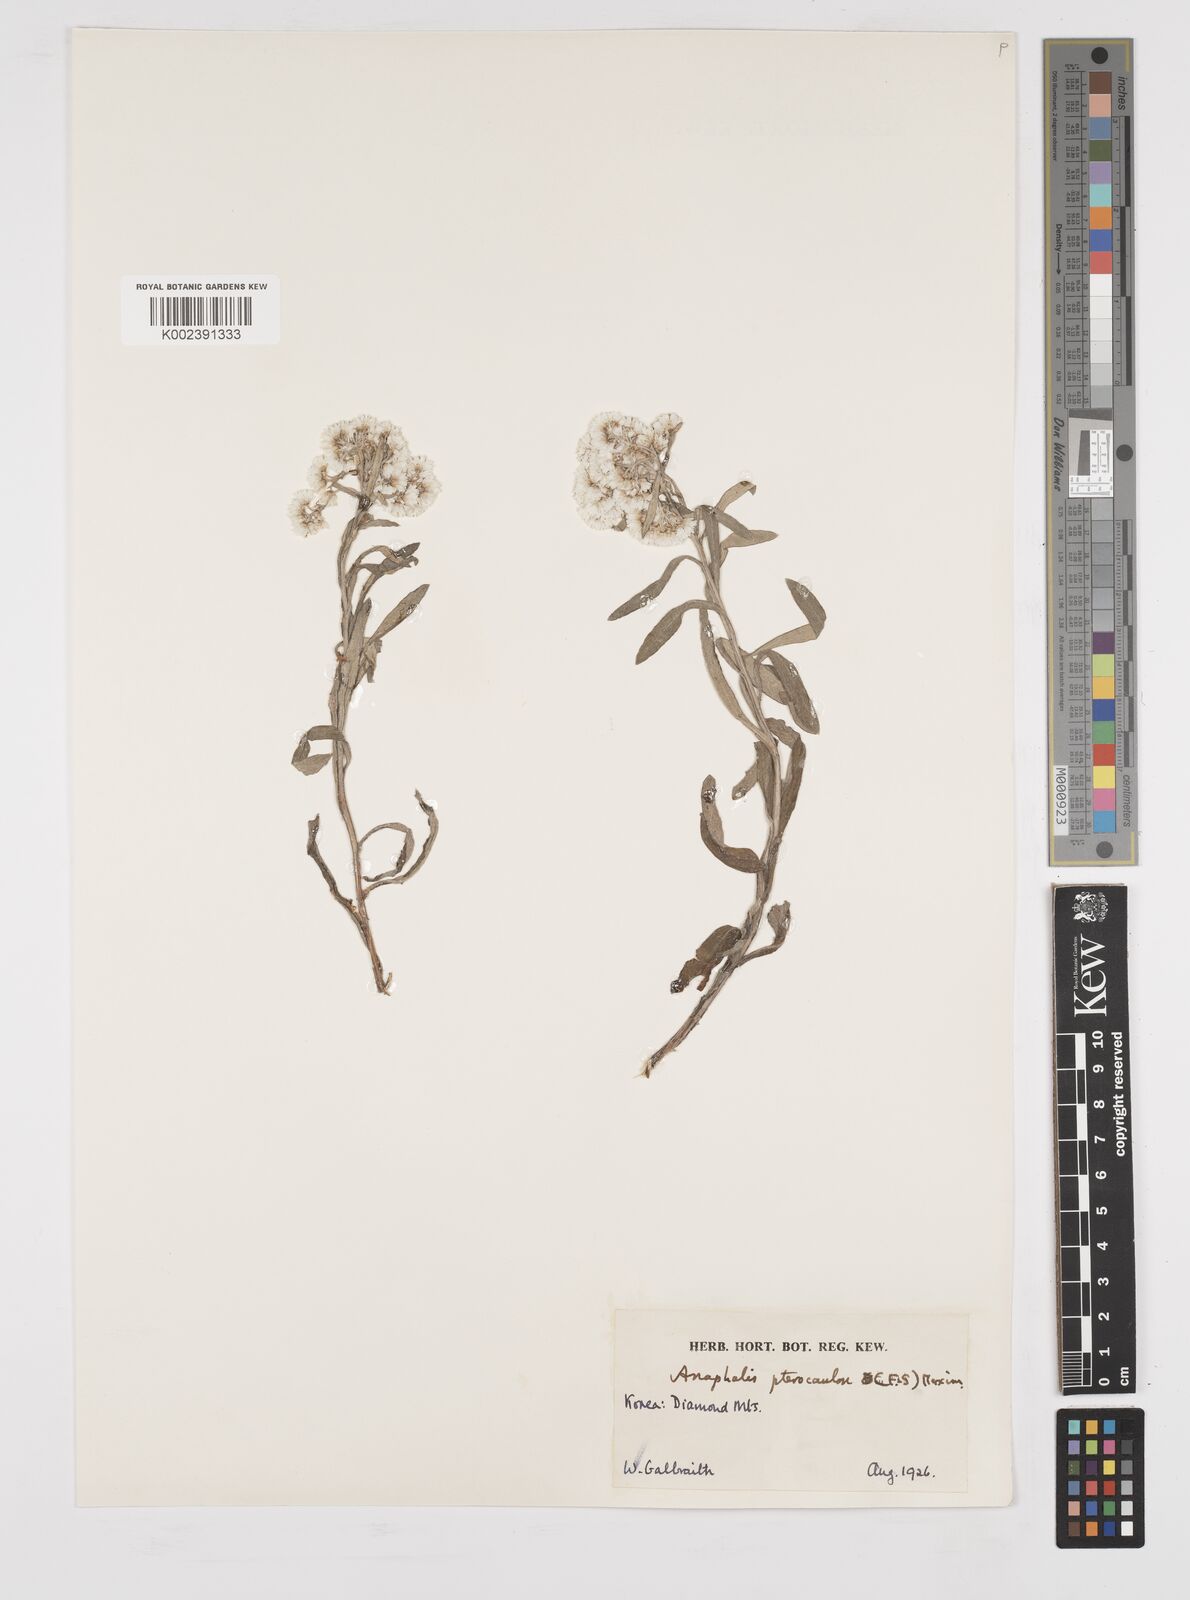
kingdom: Plantae
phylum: Tracheophyta
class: Magnoliopsida
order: Asterales
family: Asteraceae
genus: Anaphalis
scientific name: Anaphalis sinica
